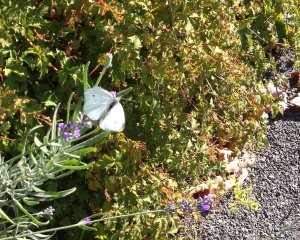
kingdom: Animalia
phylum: Arthropoda
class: Insecta
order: Lepidoptera
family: Pieridae
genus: Pieris
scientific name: Pieris rapae
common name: Cabbage White
